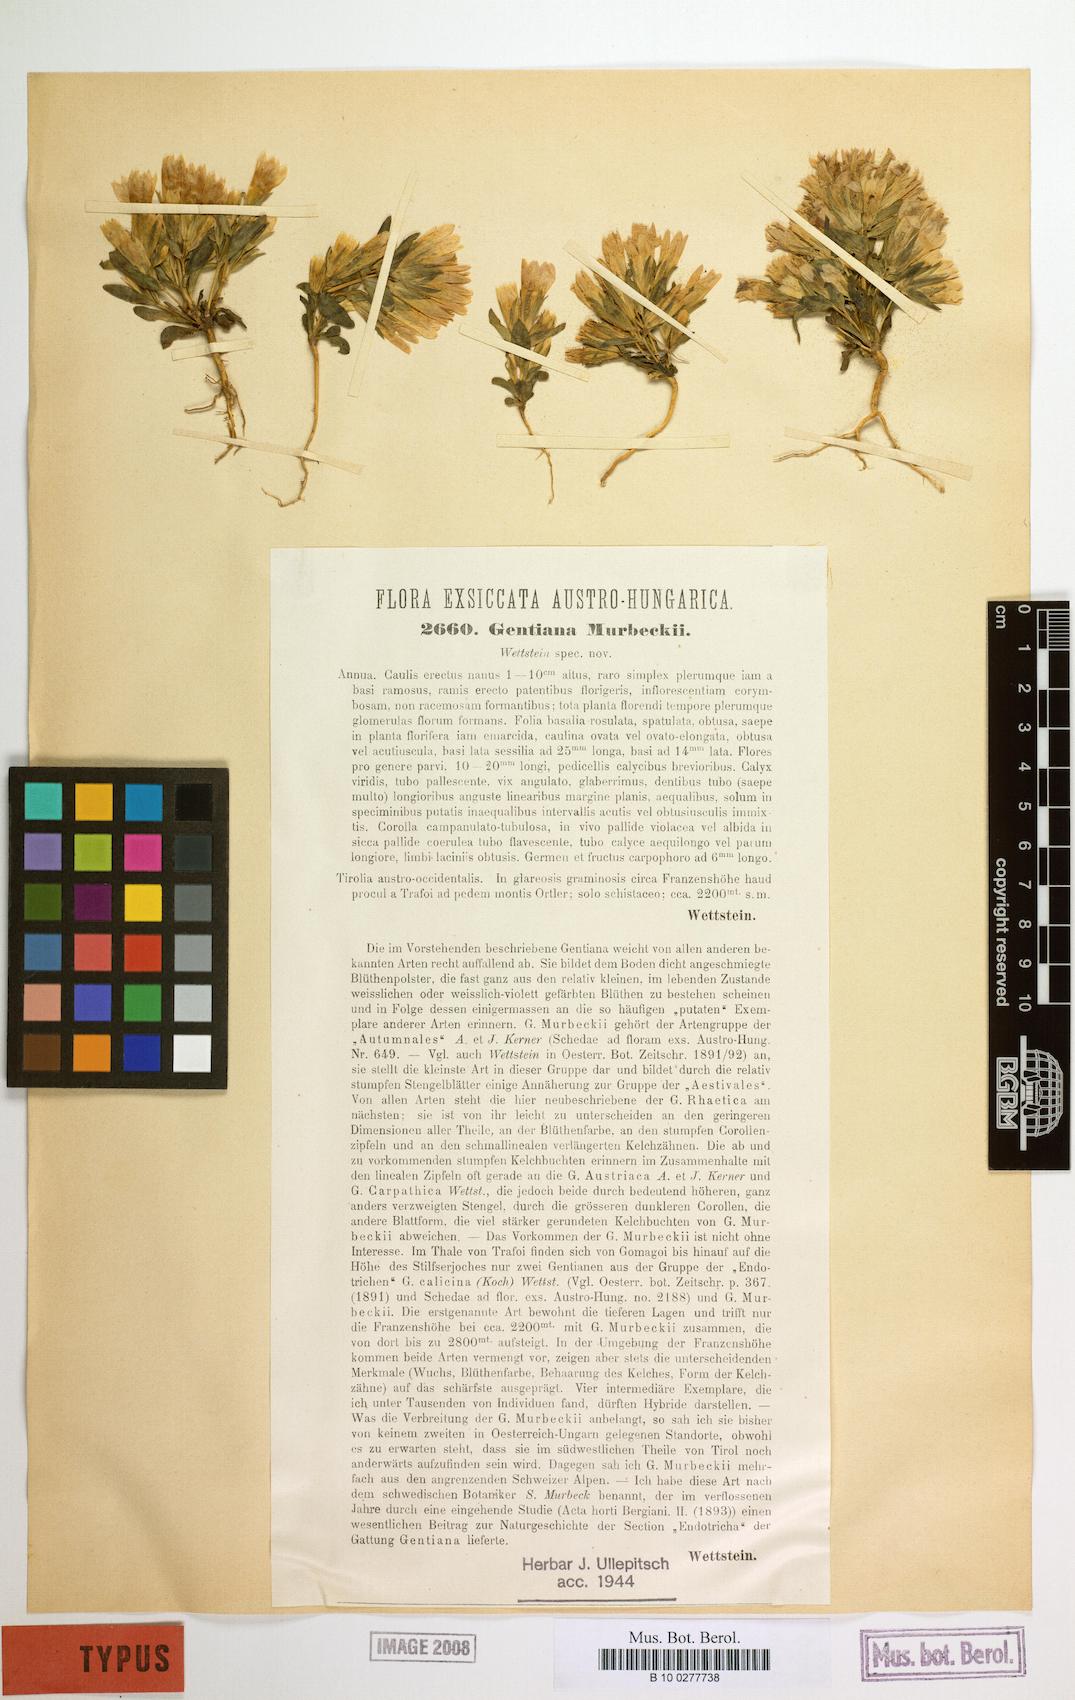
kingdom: Plantae
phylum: Tracheophyta
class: Magnoliopsida
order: Gentianales
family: Gentianaceae
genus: Gentianella
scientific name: Gentianella germanica
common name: Chiltern-gentian
